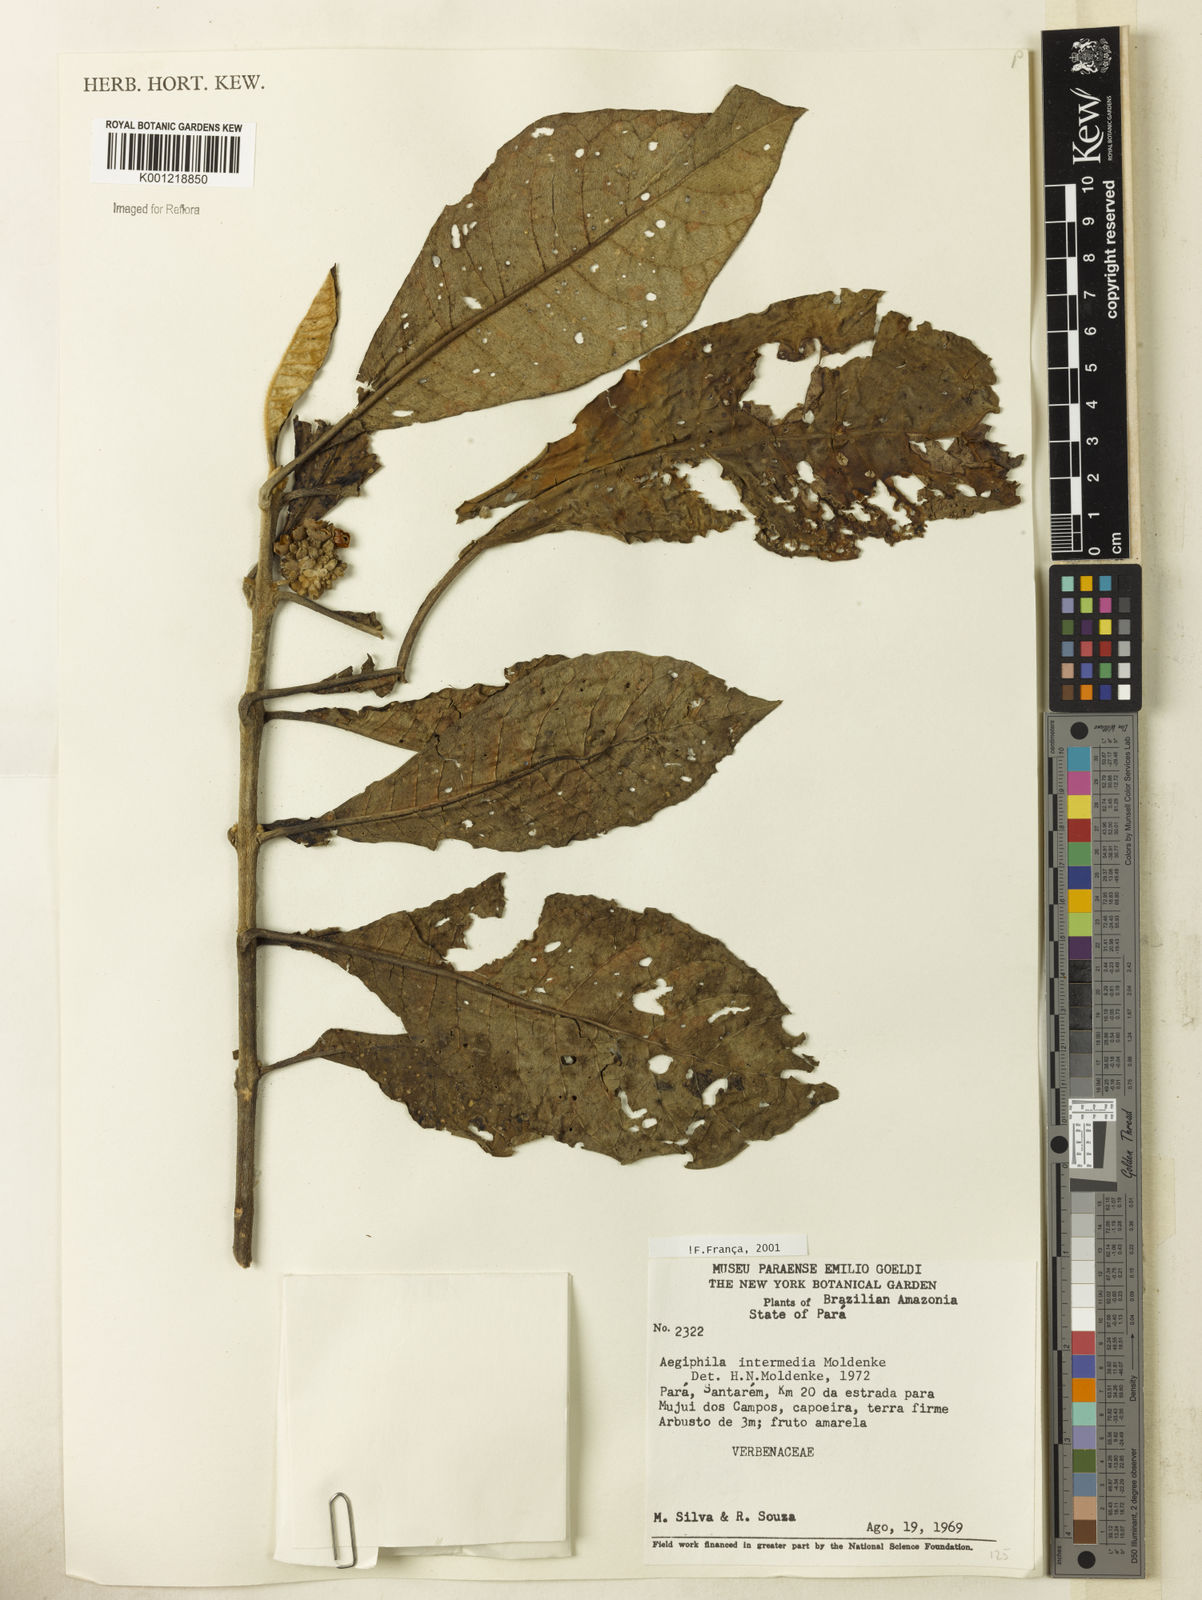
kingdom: Plantae
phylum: Tracheophyta
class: Magnoliopsida
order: Lamiales
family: Lamiaceae
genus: Aegiphila
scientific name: Aegiphila intermedia
